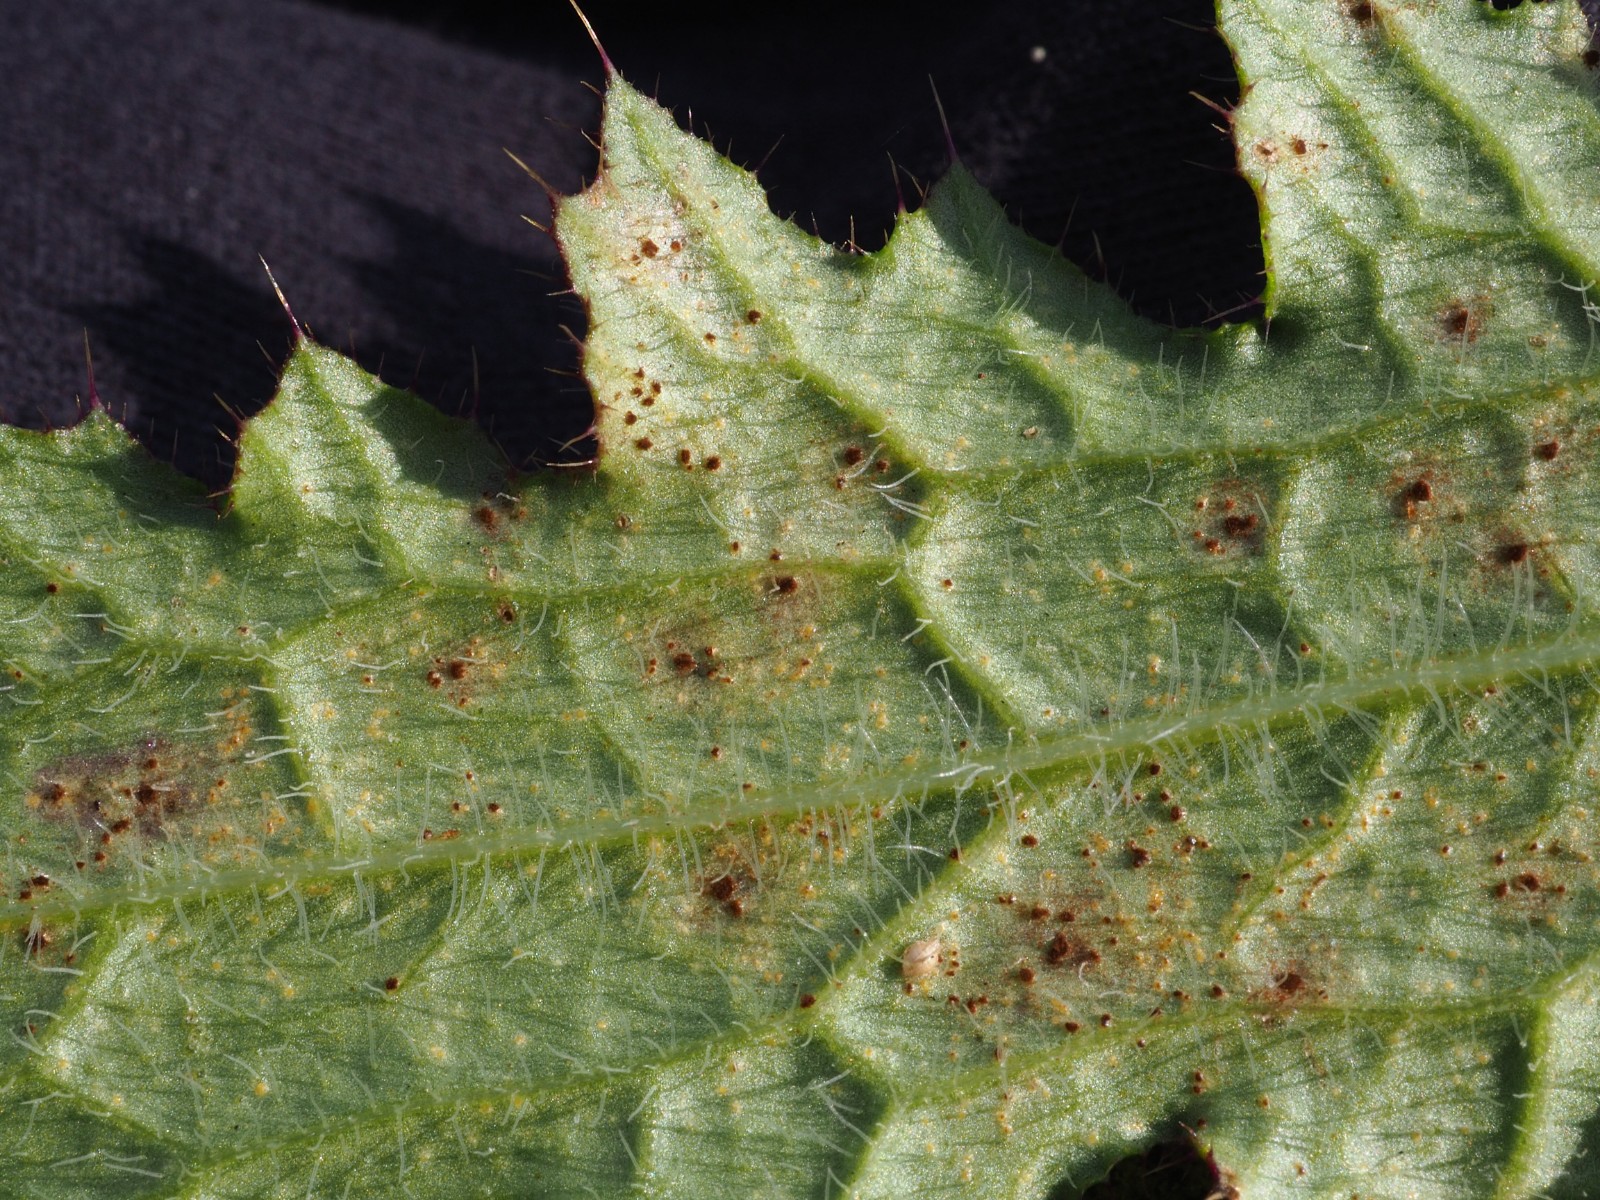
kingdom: Fungi
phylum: Basidiomycota
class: Pucciniomycetes
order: Pucciniales
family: Pucciniaceae
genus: Puccinia
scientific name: Puccinia cnici
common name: Rust fungus
